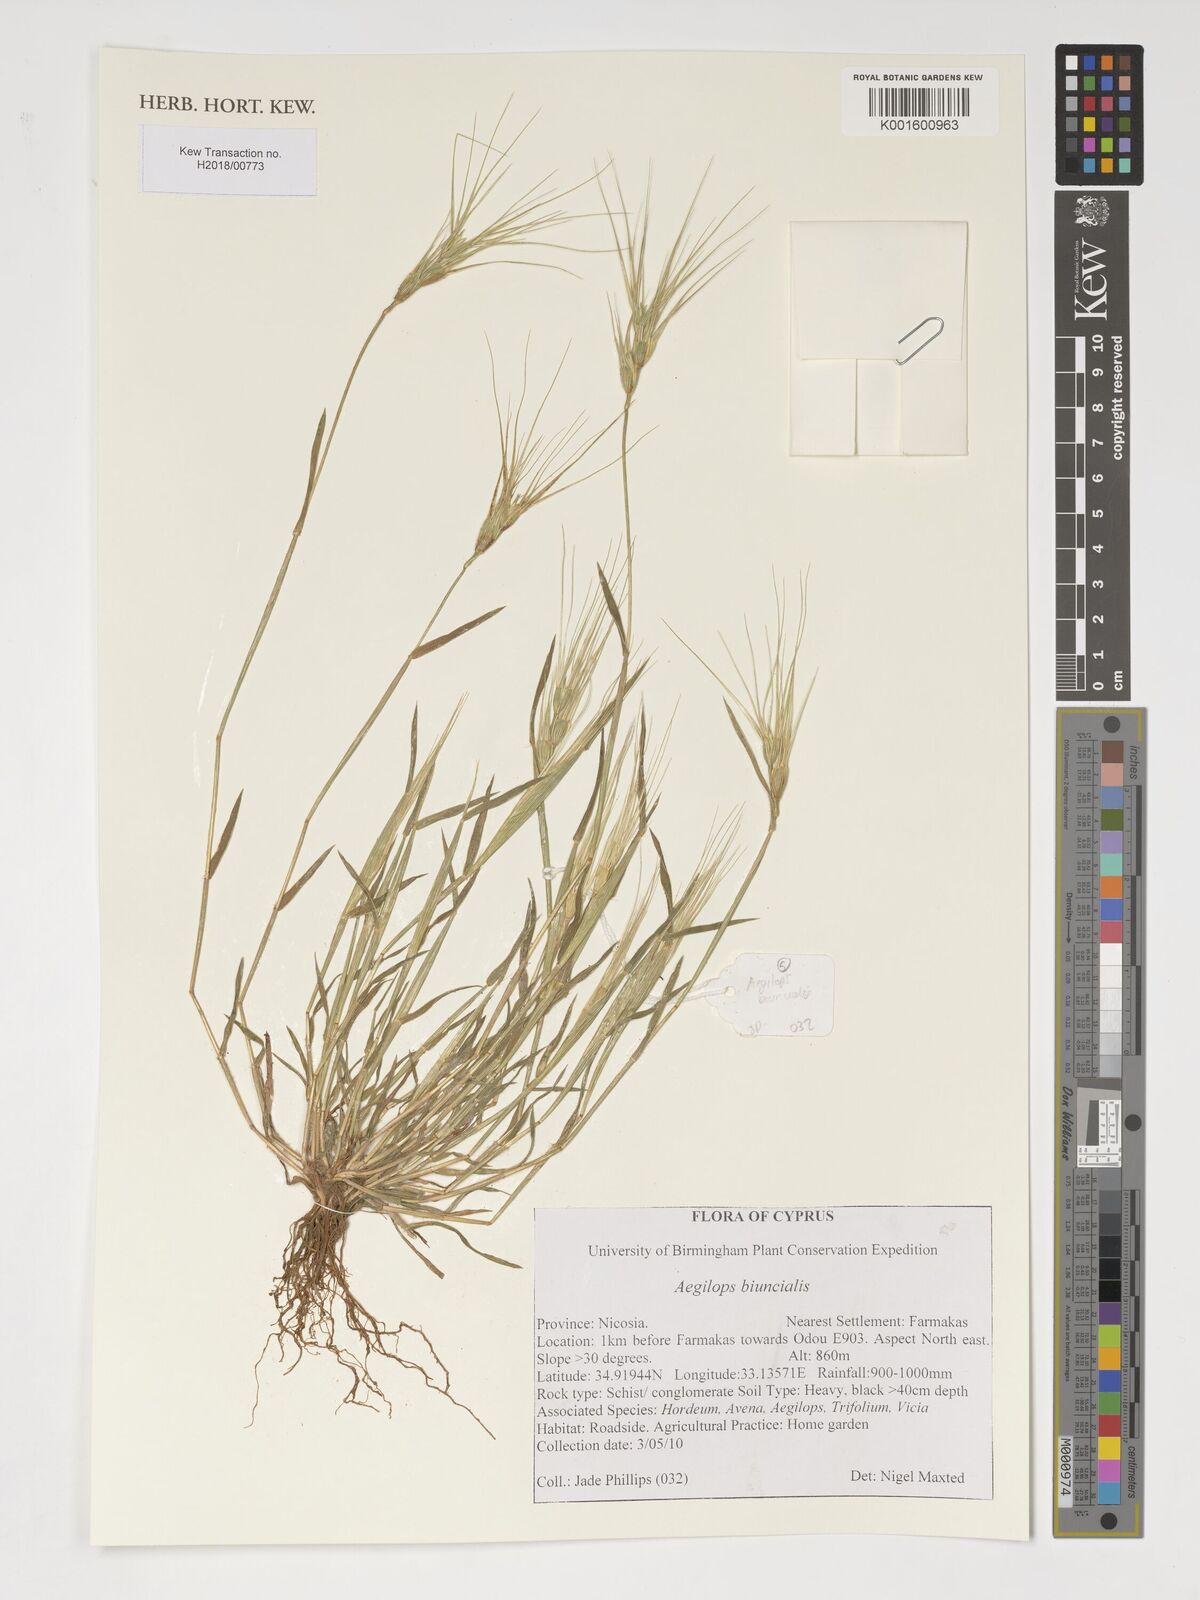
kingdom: Plantae
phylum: Tracheophyta
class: Liliopsida
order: Poales
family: Poaceae
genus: Aegilops
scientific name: Aegilops biuncialis
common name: Mediterranean aegilops
